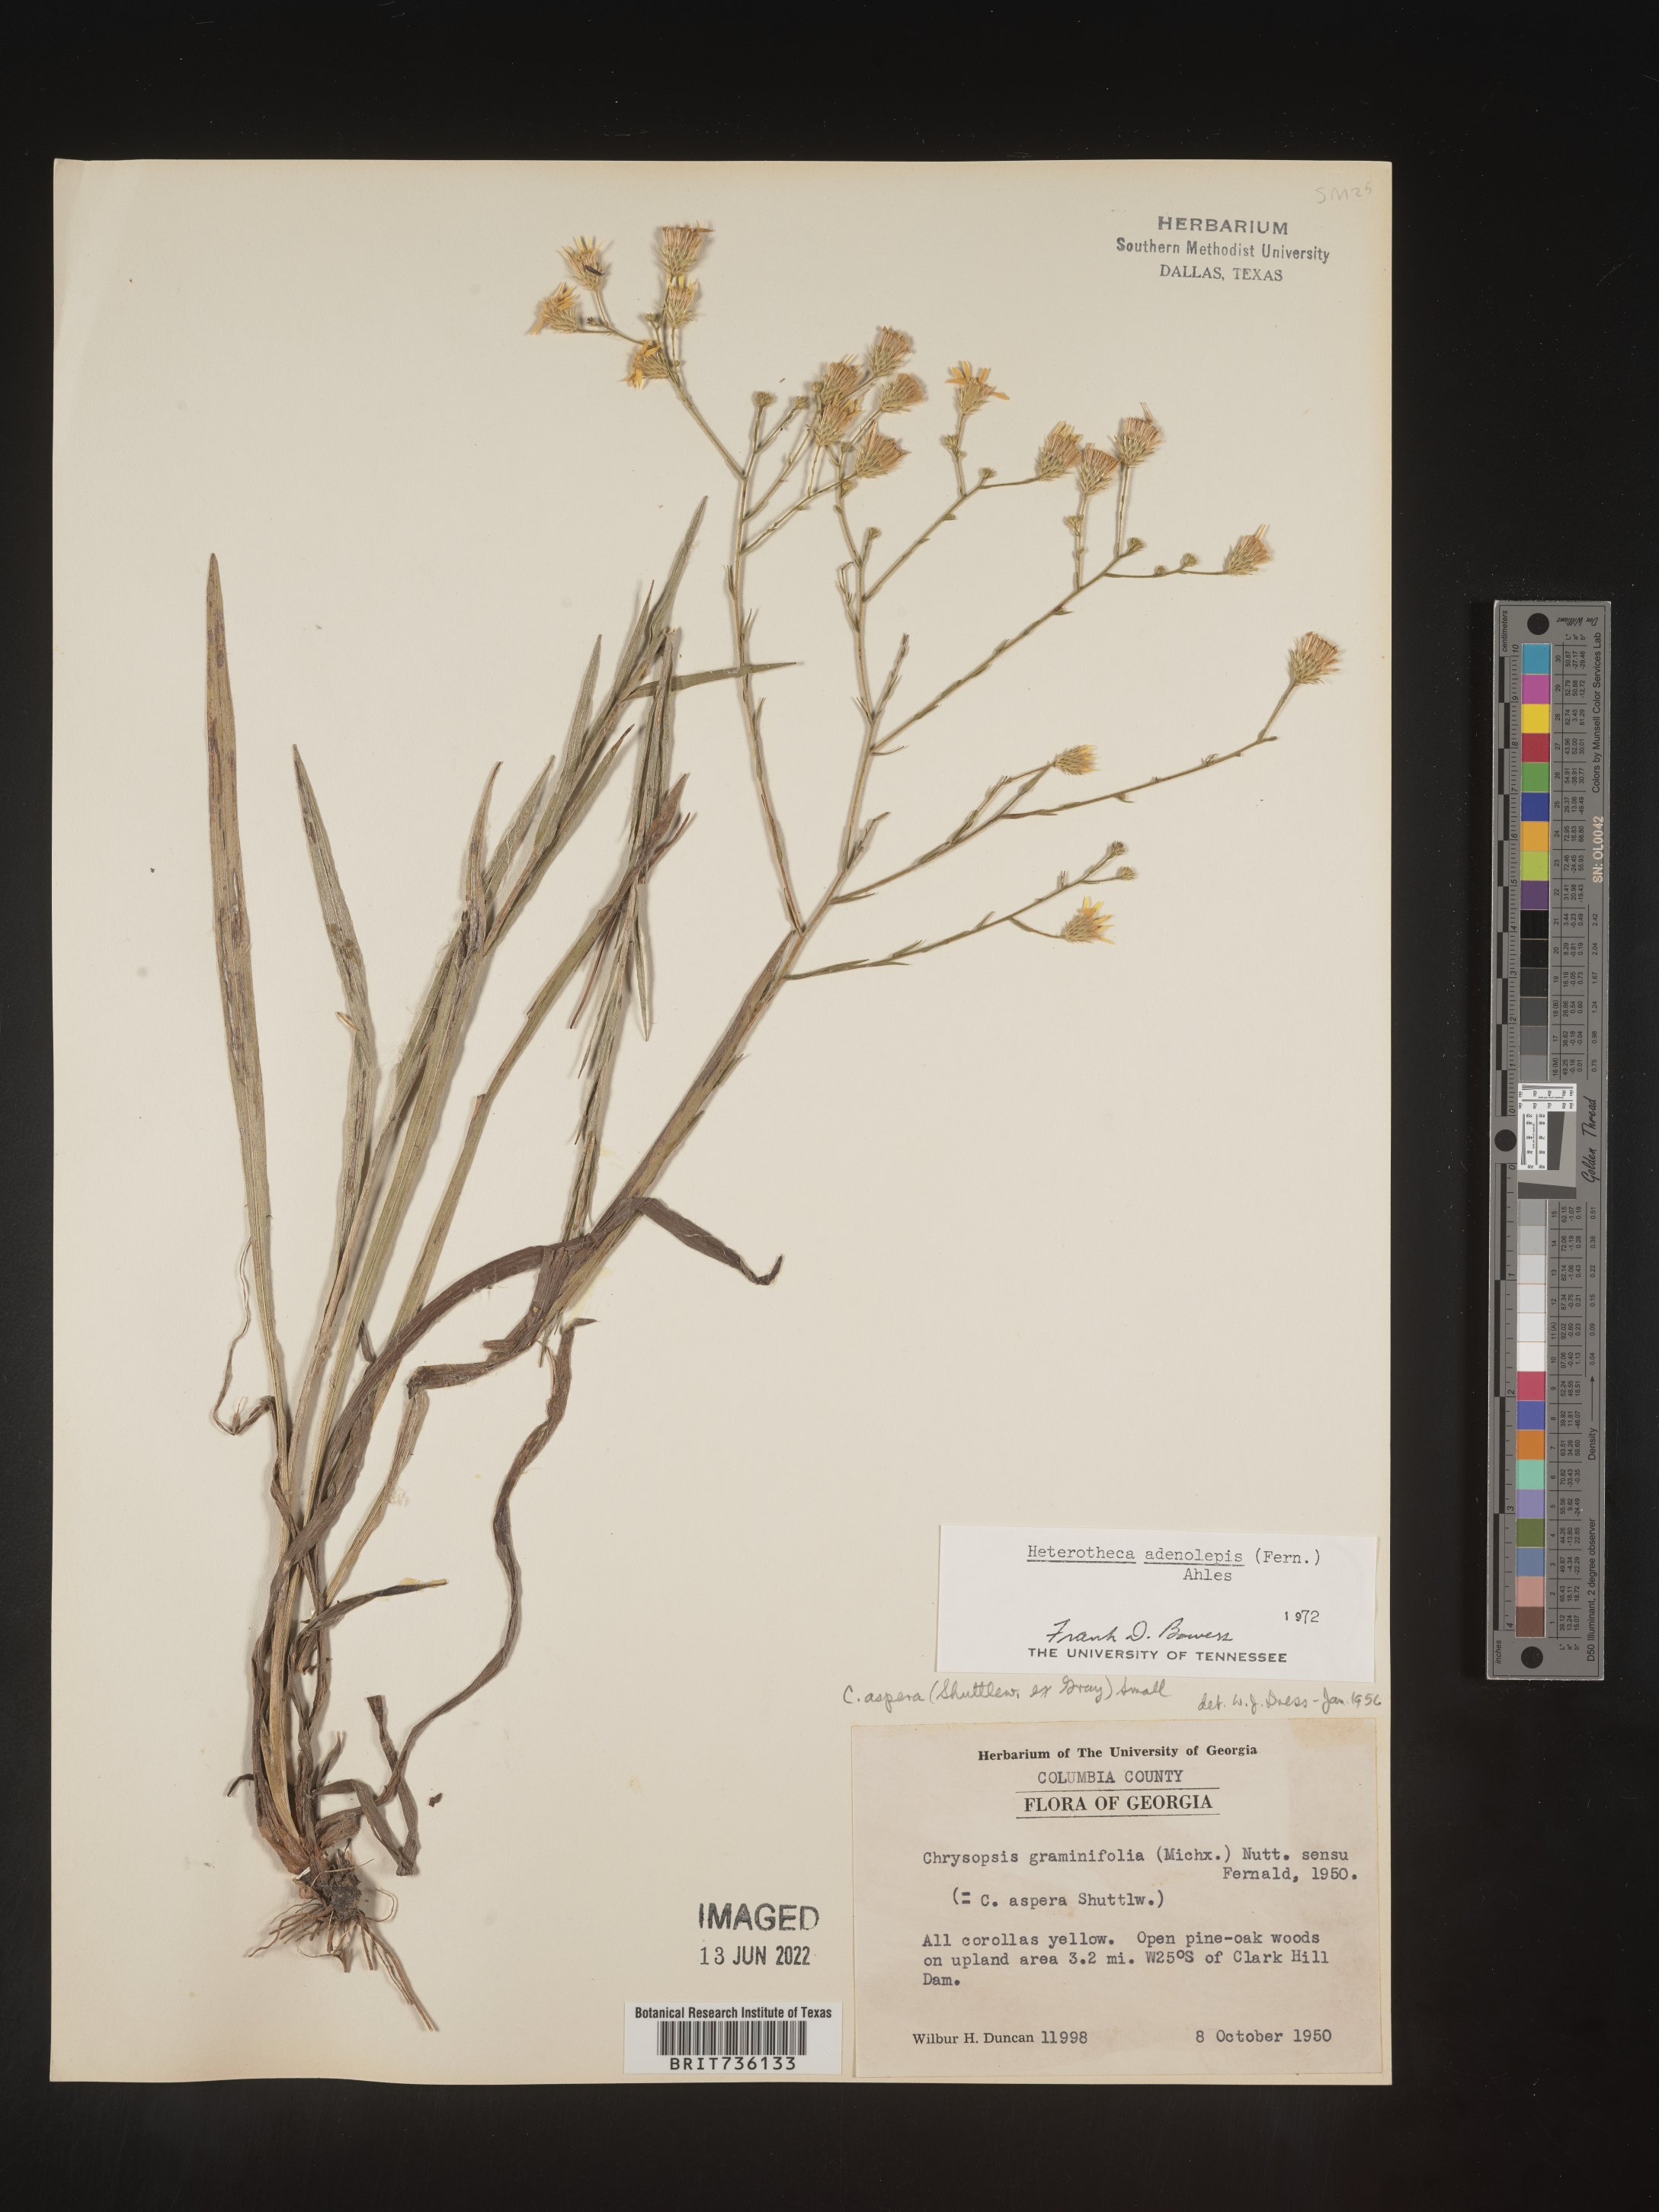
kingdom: Plantae
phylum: Tracheophyta
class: Magnoliopsida
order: Asterales
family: Asteraceae
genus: Pityopsis
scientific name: Pityopsis aspera
